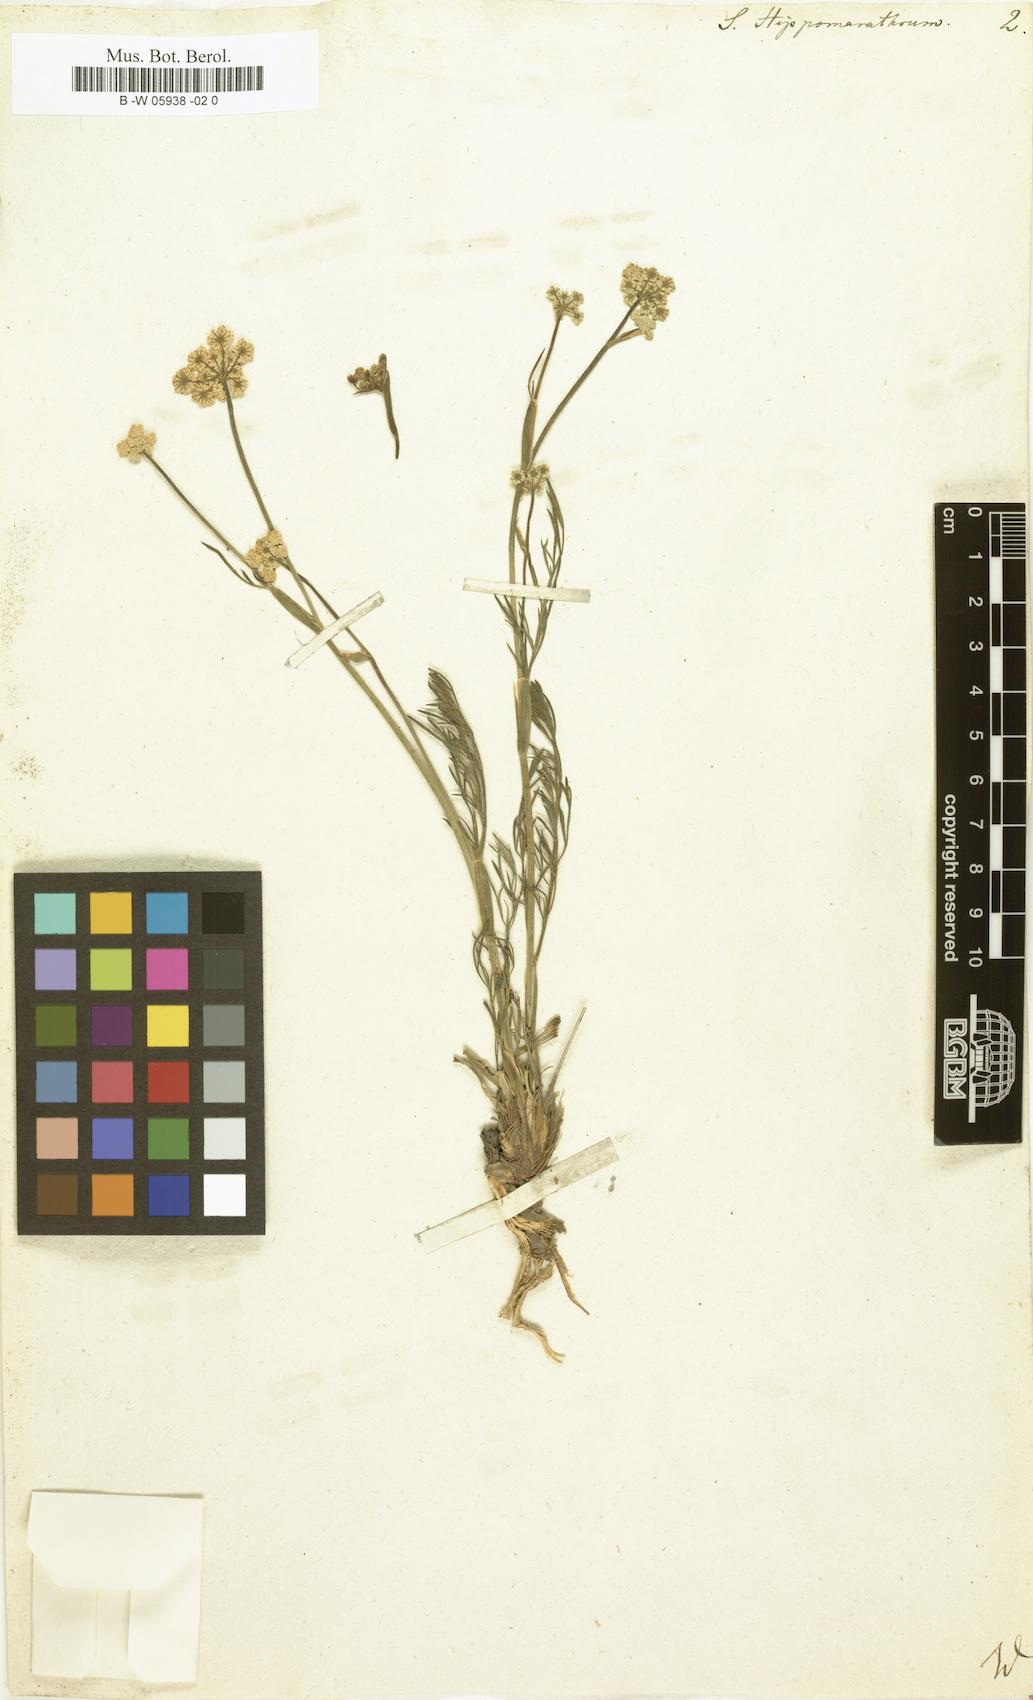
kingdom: Plantae
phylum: Tracheophyta
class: Magnoliopsida
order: Apiales
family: Apiaceae
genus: Hippomarathrum
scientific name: Hippomarathrum
